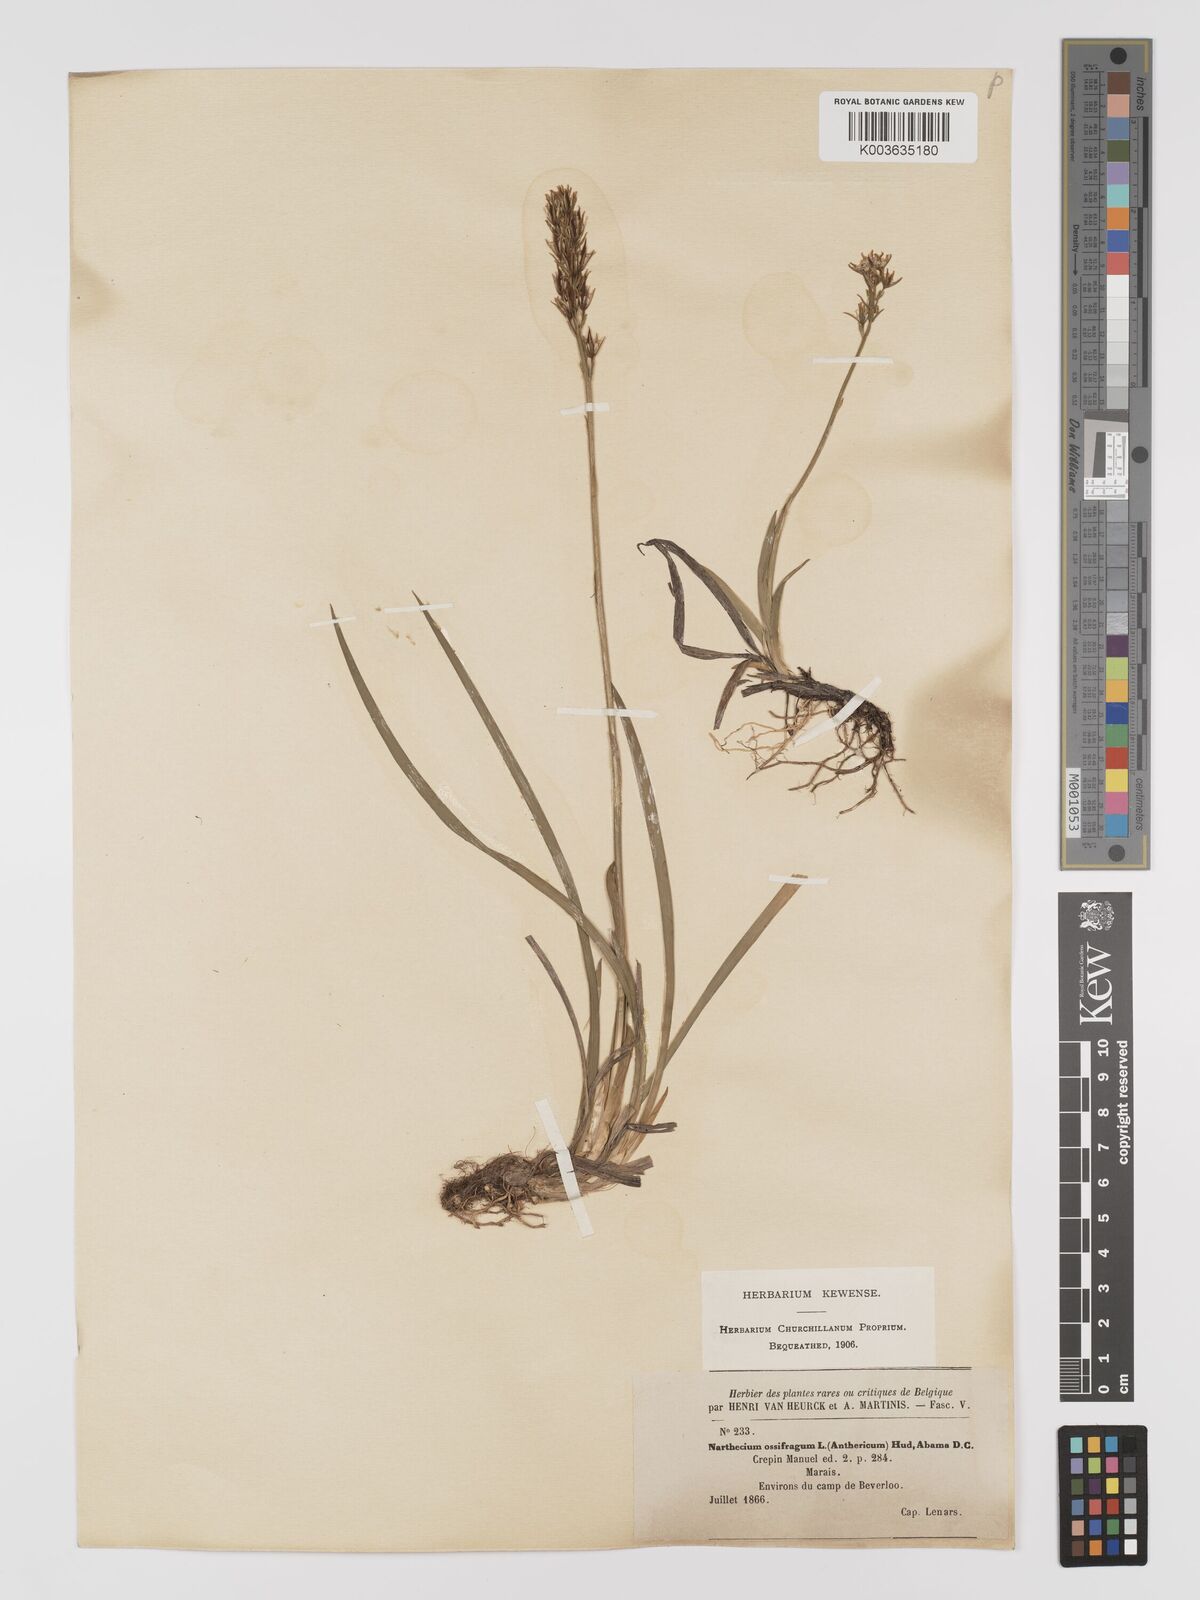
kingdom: Plantae
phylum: Tracheophyta
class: Liliopsida
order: Dioscoreales
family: Nartheciaceae
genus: Narthecium
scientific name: Narthecium ossifragum
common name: Bog asphodel
